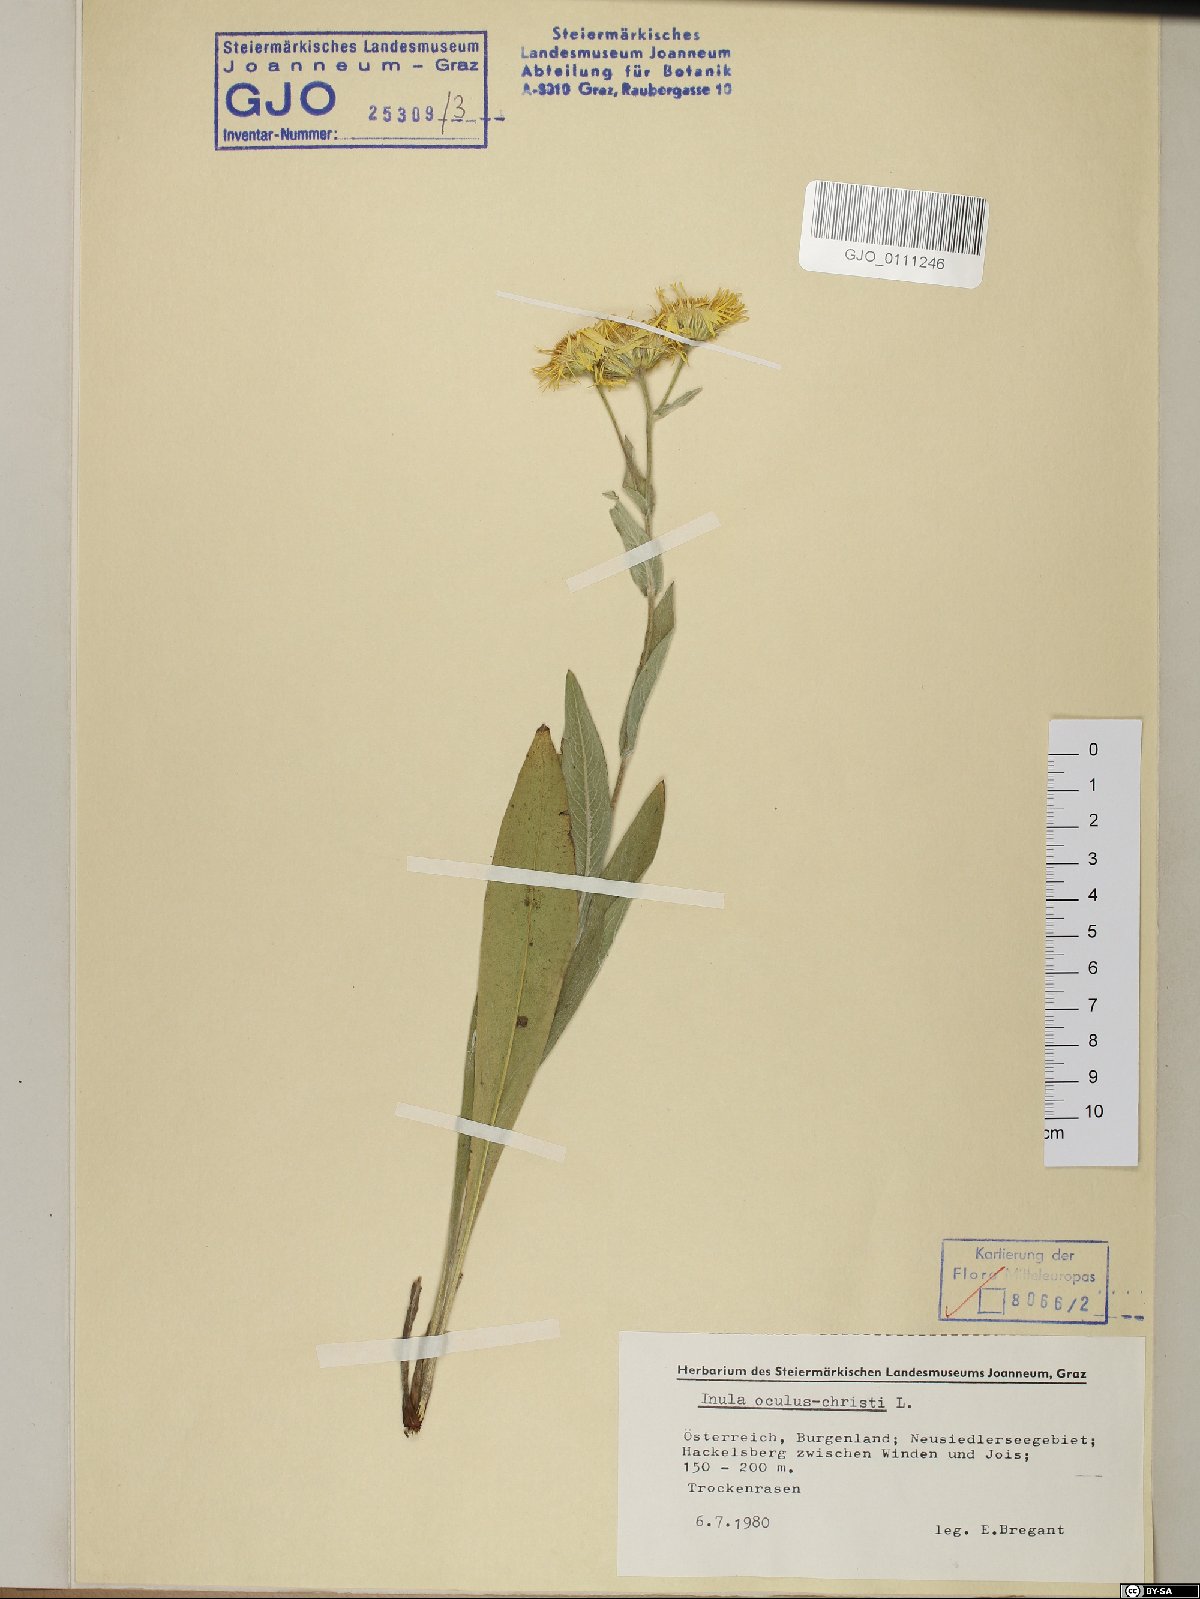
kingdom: Plantae
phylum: Tracheophyta
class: Magnoliopsida
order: Asterales
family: Asteraceae
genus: Pentanema
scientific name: Pentanema oculus-christi
